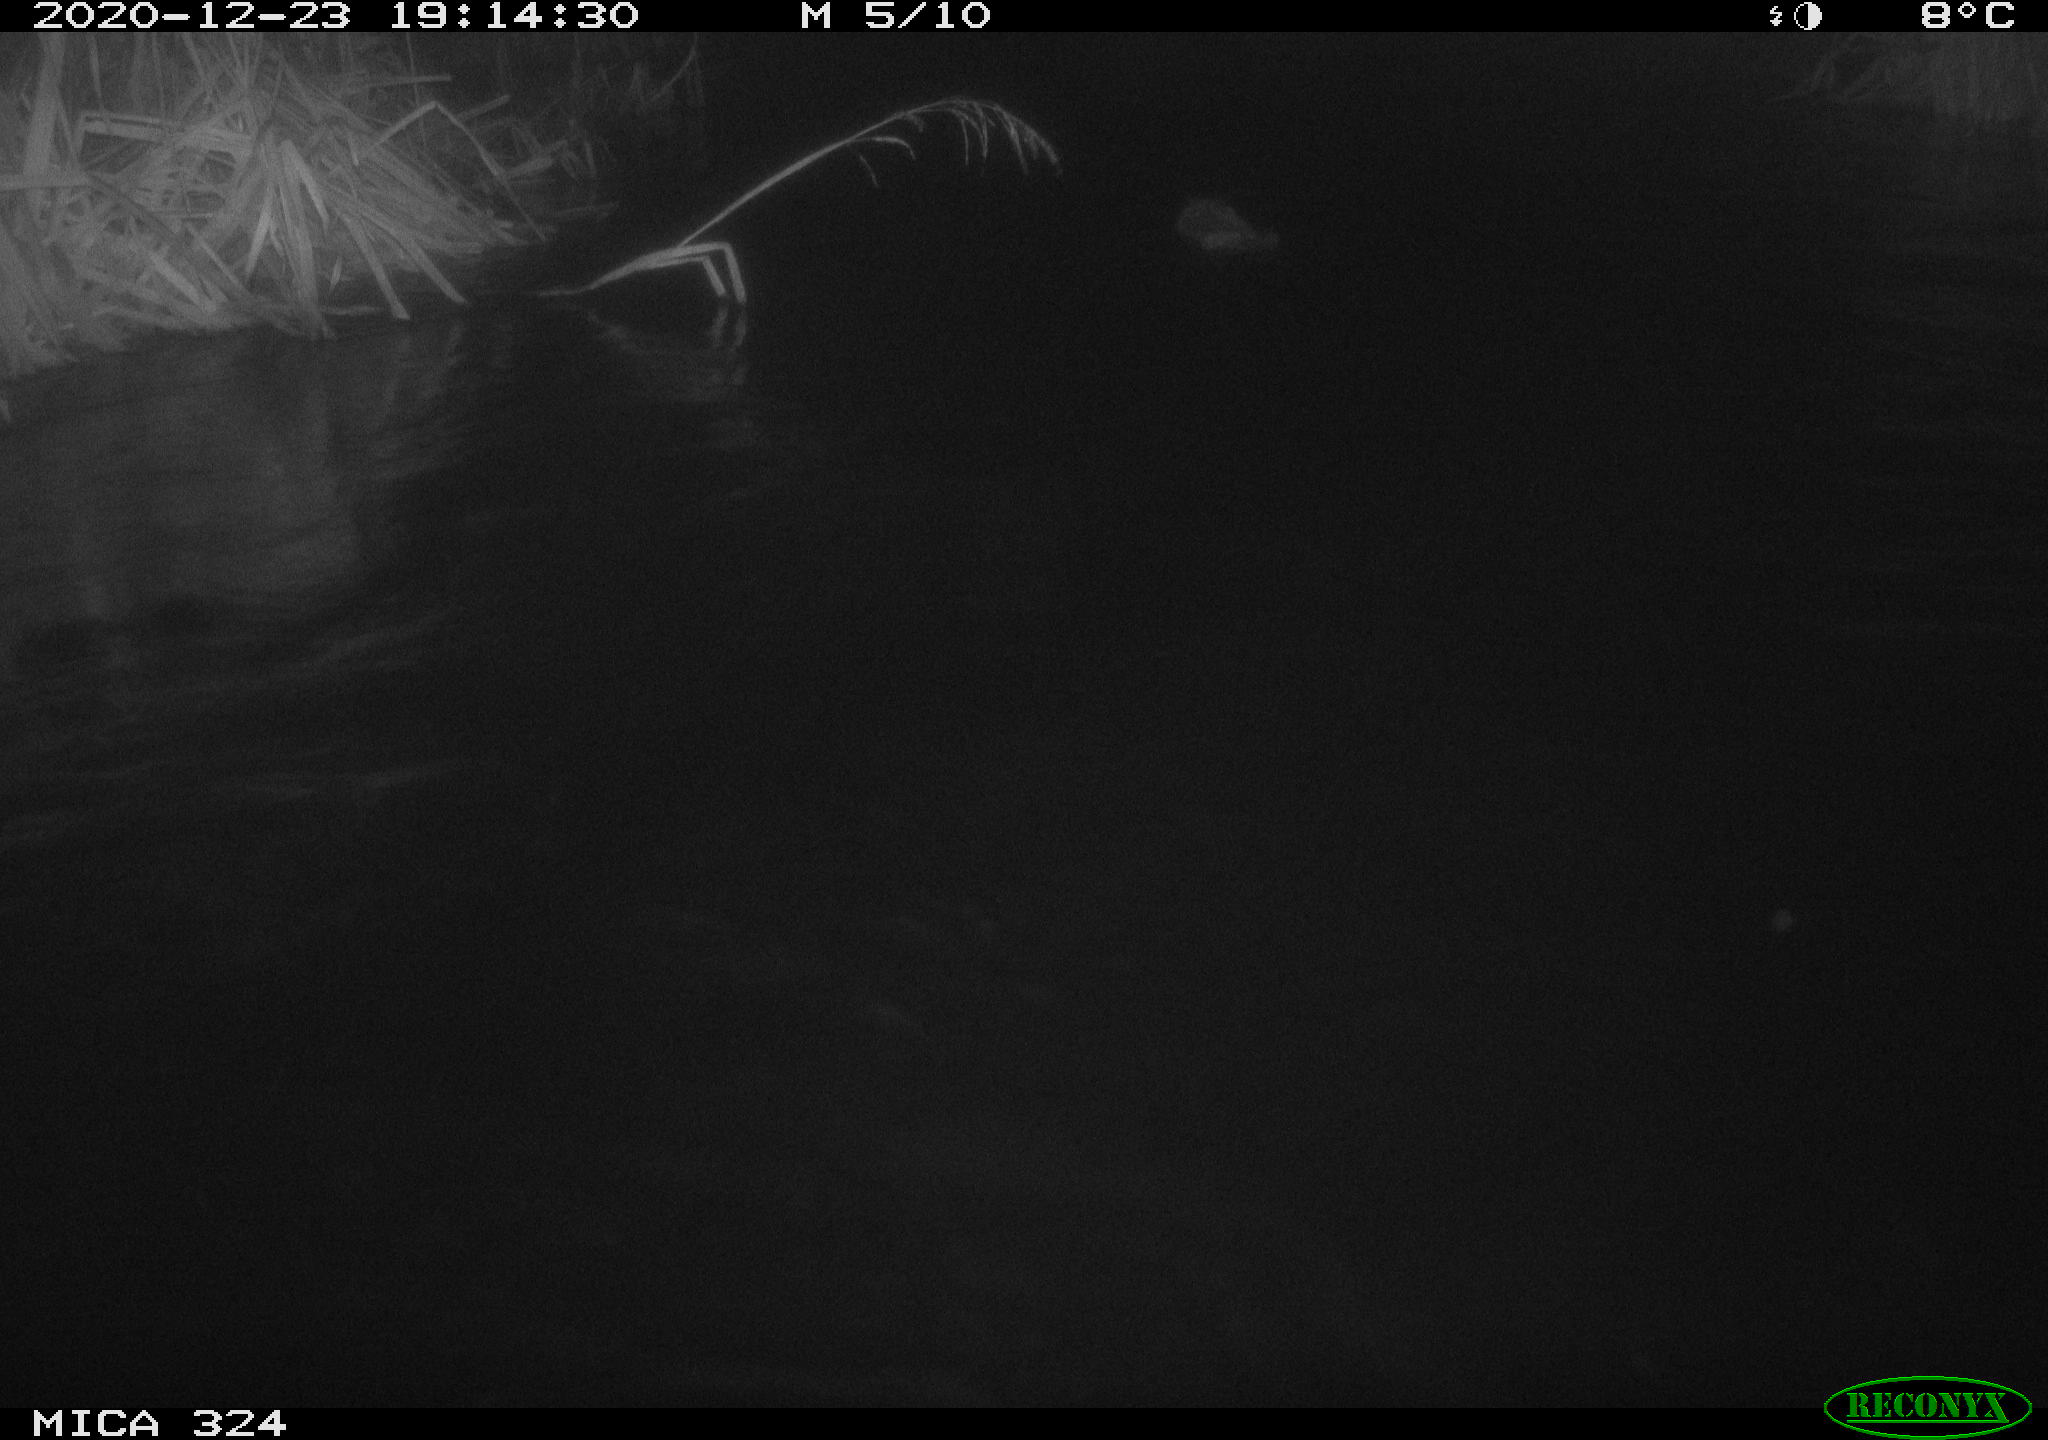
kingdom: Animalia
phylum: Chordata
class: Mammalia
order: Rodentia
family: Castoridae
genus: Castor
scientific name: Castor fiber
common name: Eurasian beaver
